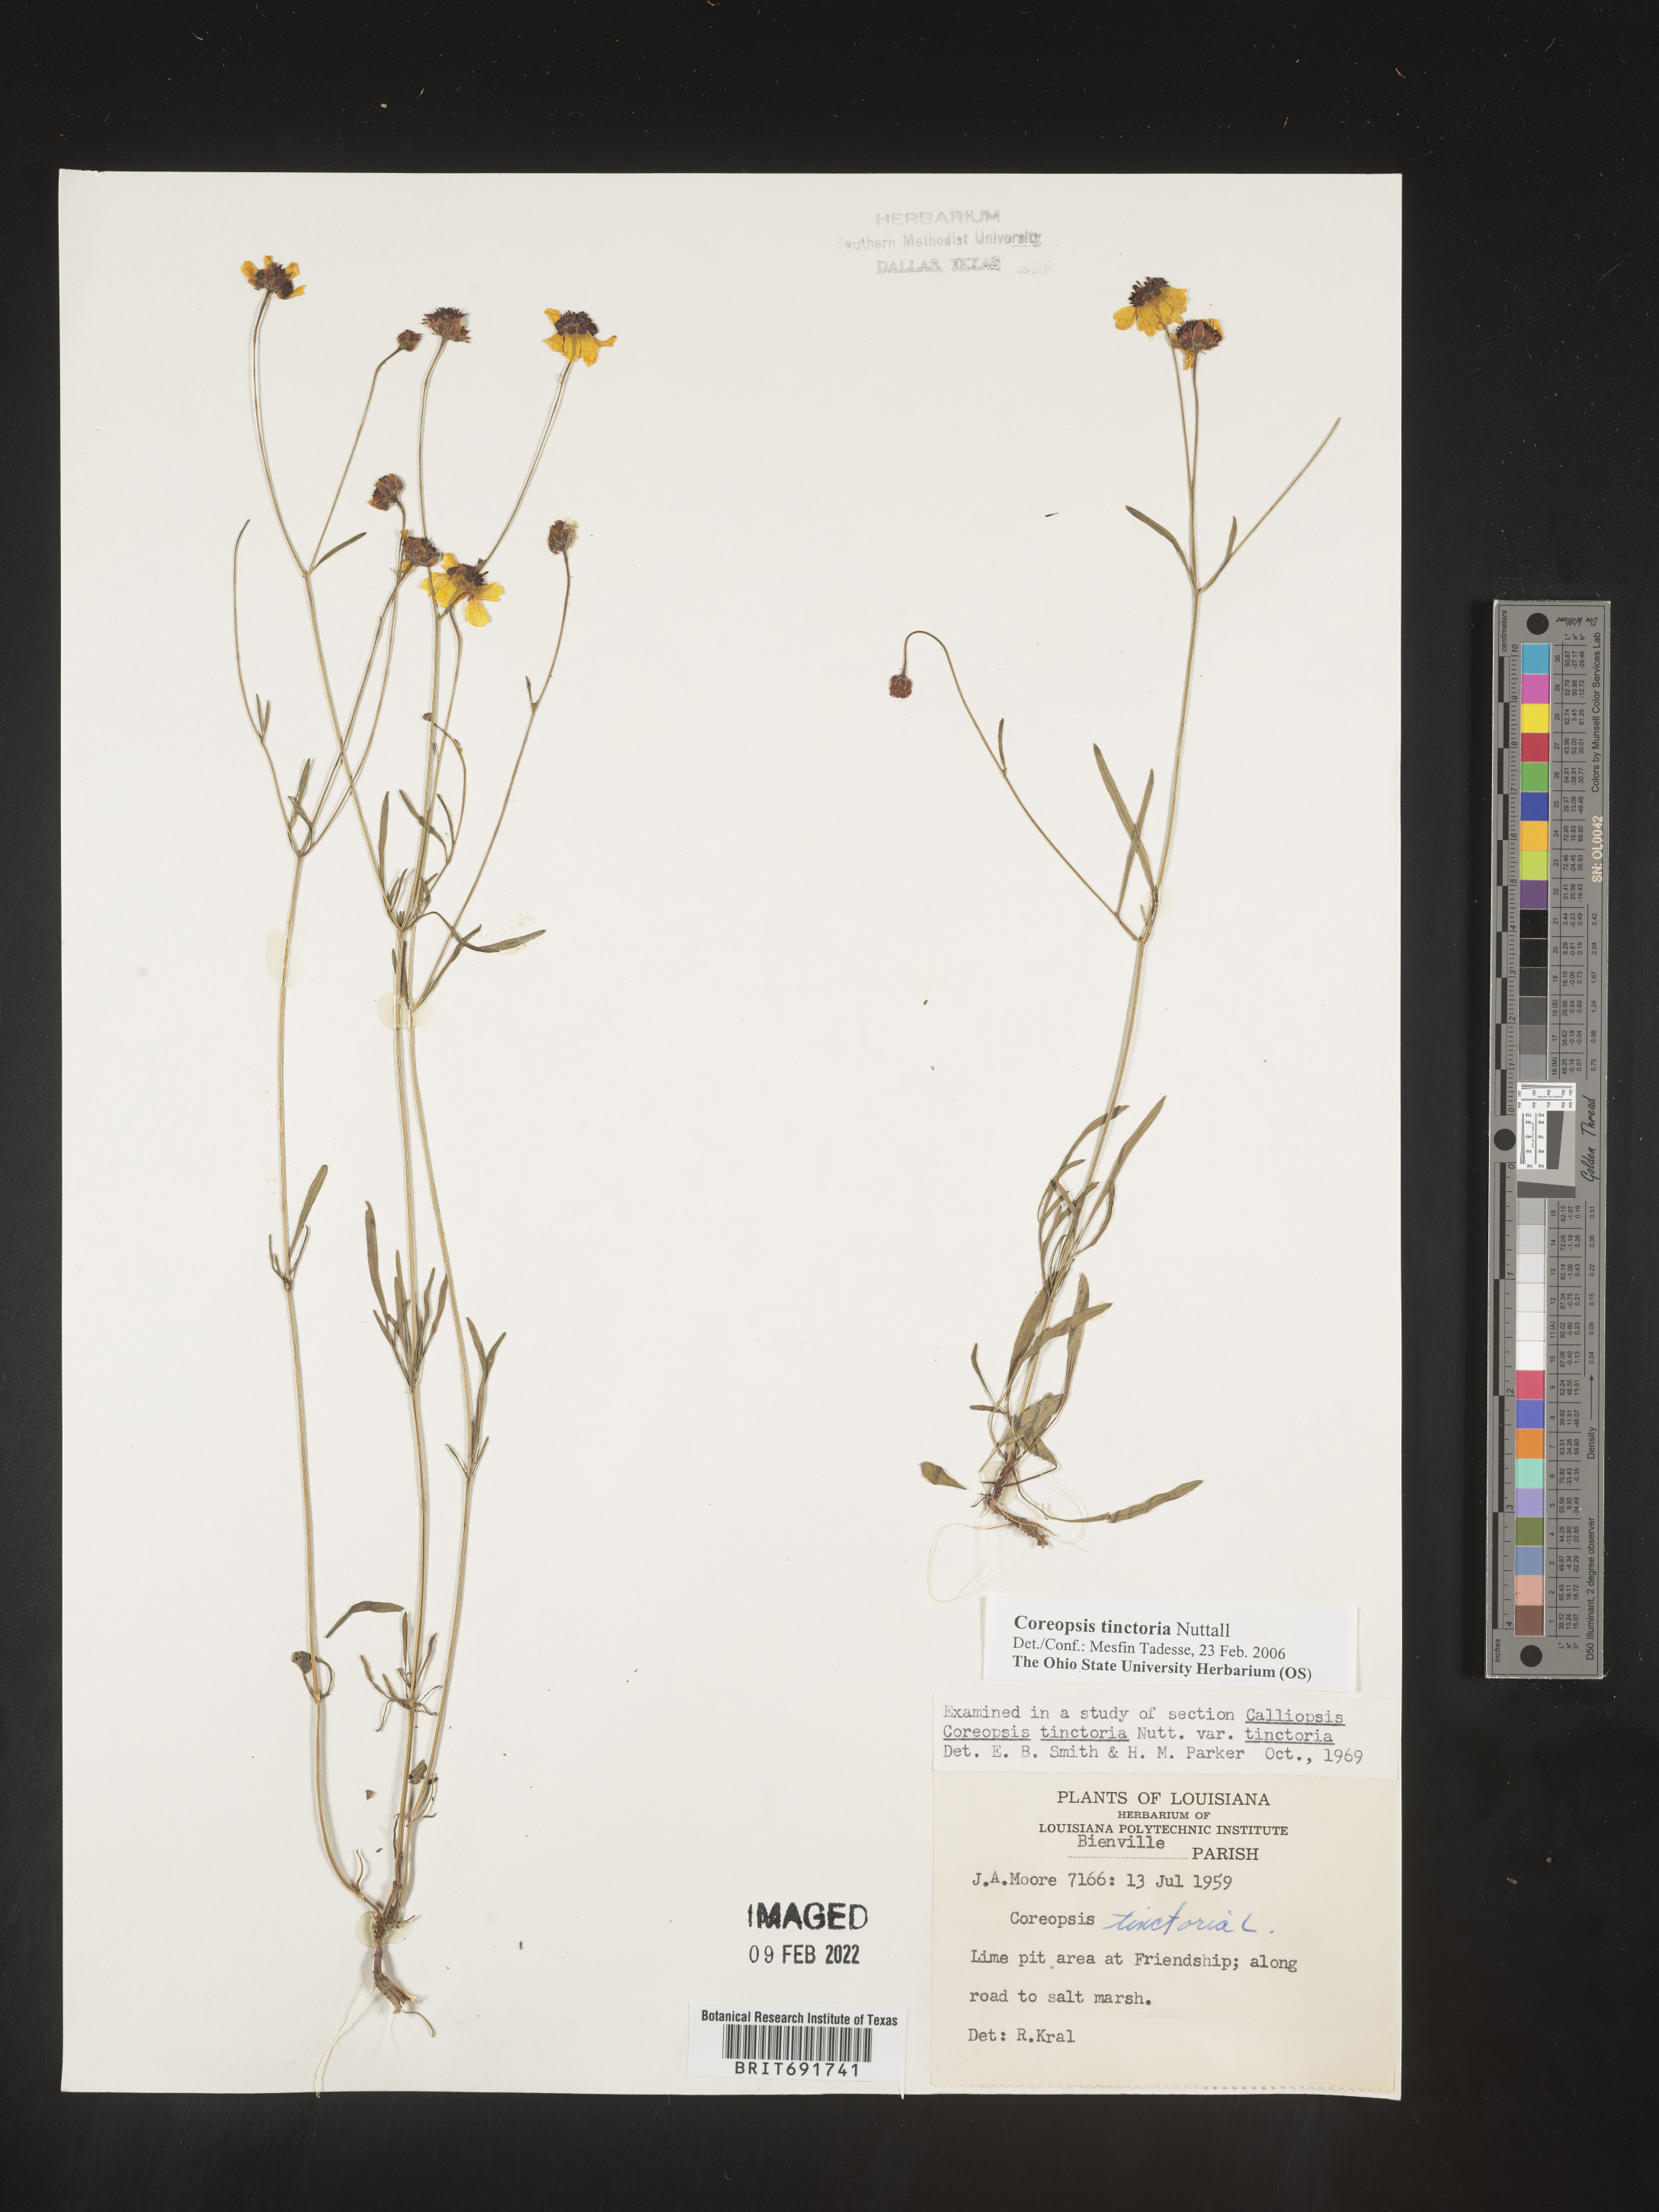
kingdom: Plantae
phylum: Tracheophyta
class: Magnoliopsida
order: Asterales
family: Asteraceae
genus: Coreopsis
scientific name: Coreopsis tinctoria
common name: Garden tickseed
